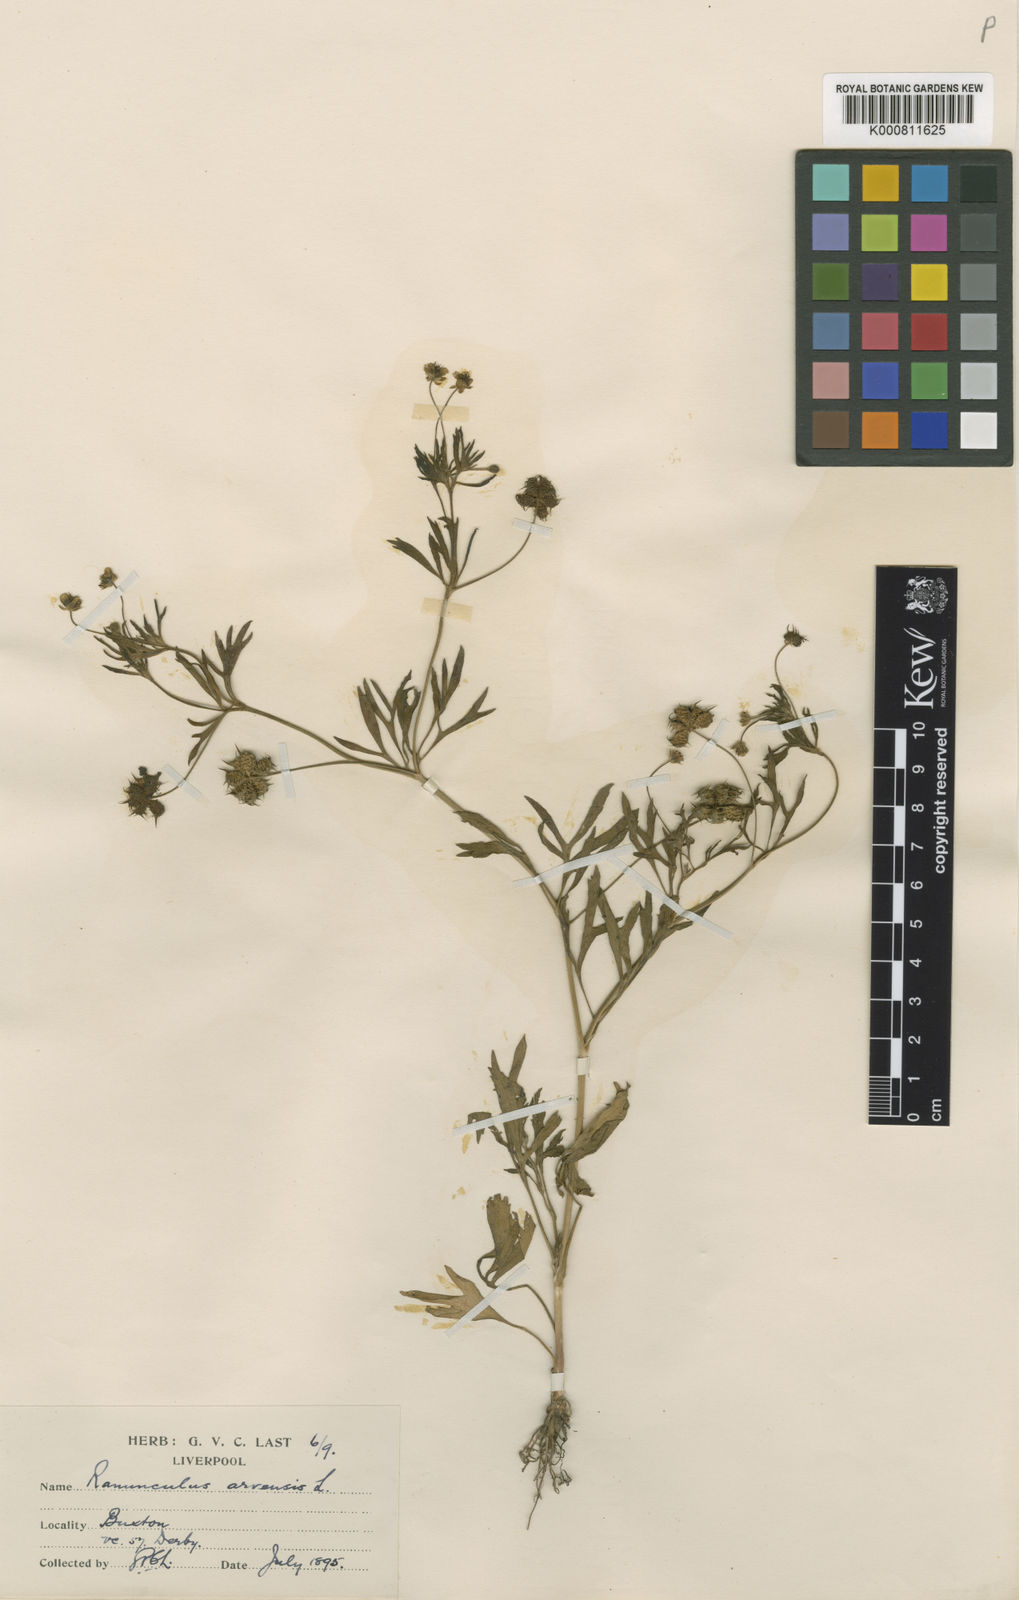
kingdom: Plantae
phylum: Tracheophyta
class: Magnoliopsida
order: Ranunculales
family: Ranunculaceae
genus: Ranunculus
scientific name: Ranunculus arvensis
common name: Corn buttercup
